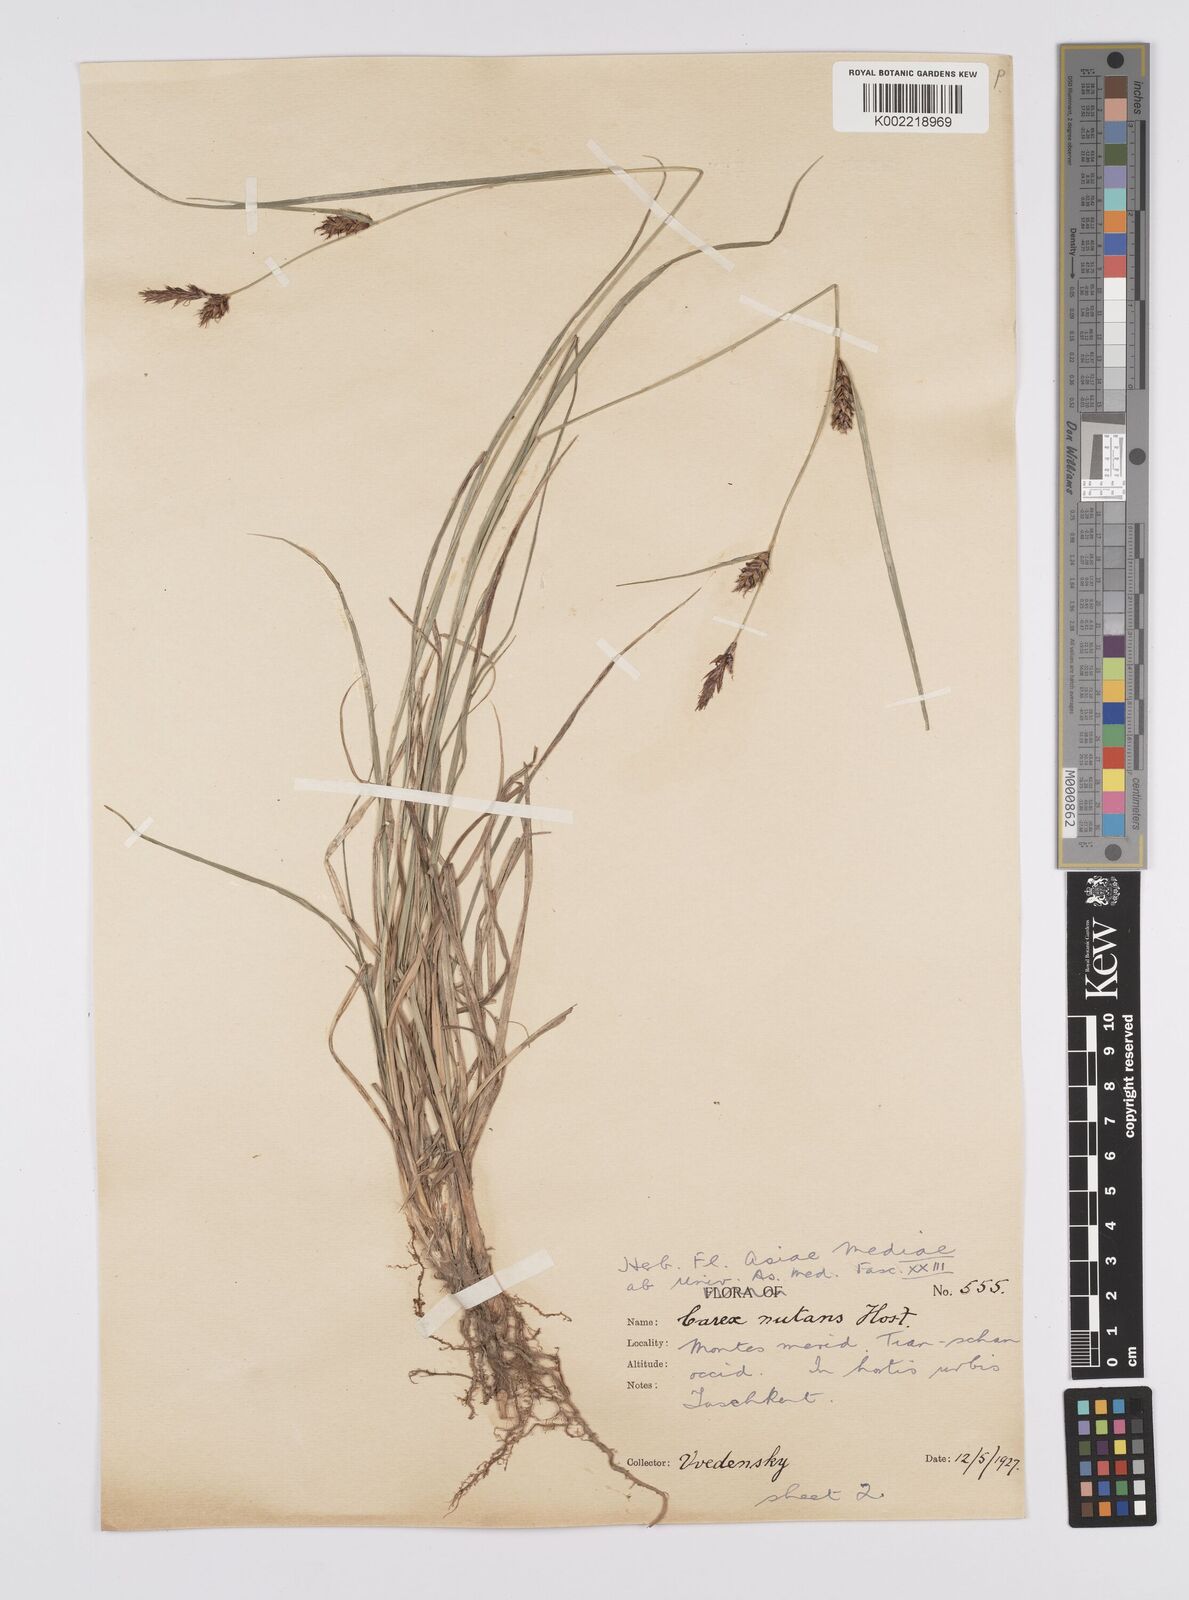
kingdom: Plantae
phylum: Tracheophyta
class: Liliopsida
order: Poales
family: Cyperaceae
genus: Carex
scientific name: Carex melanostachya
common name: Black-spiked sedge
